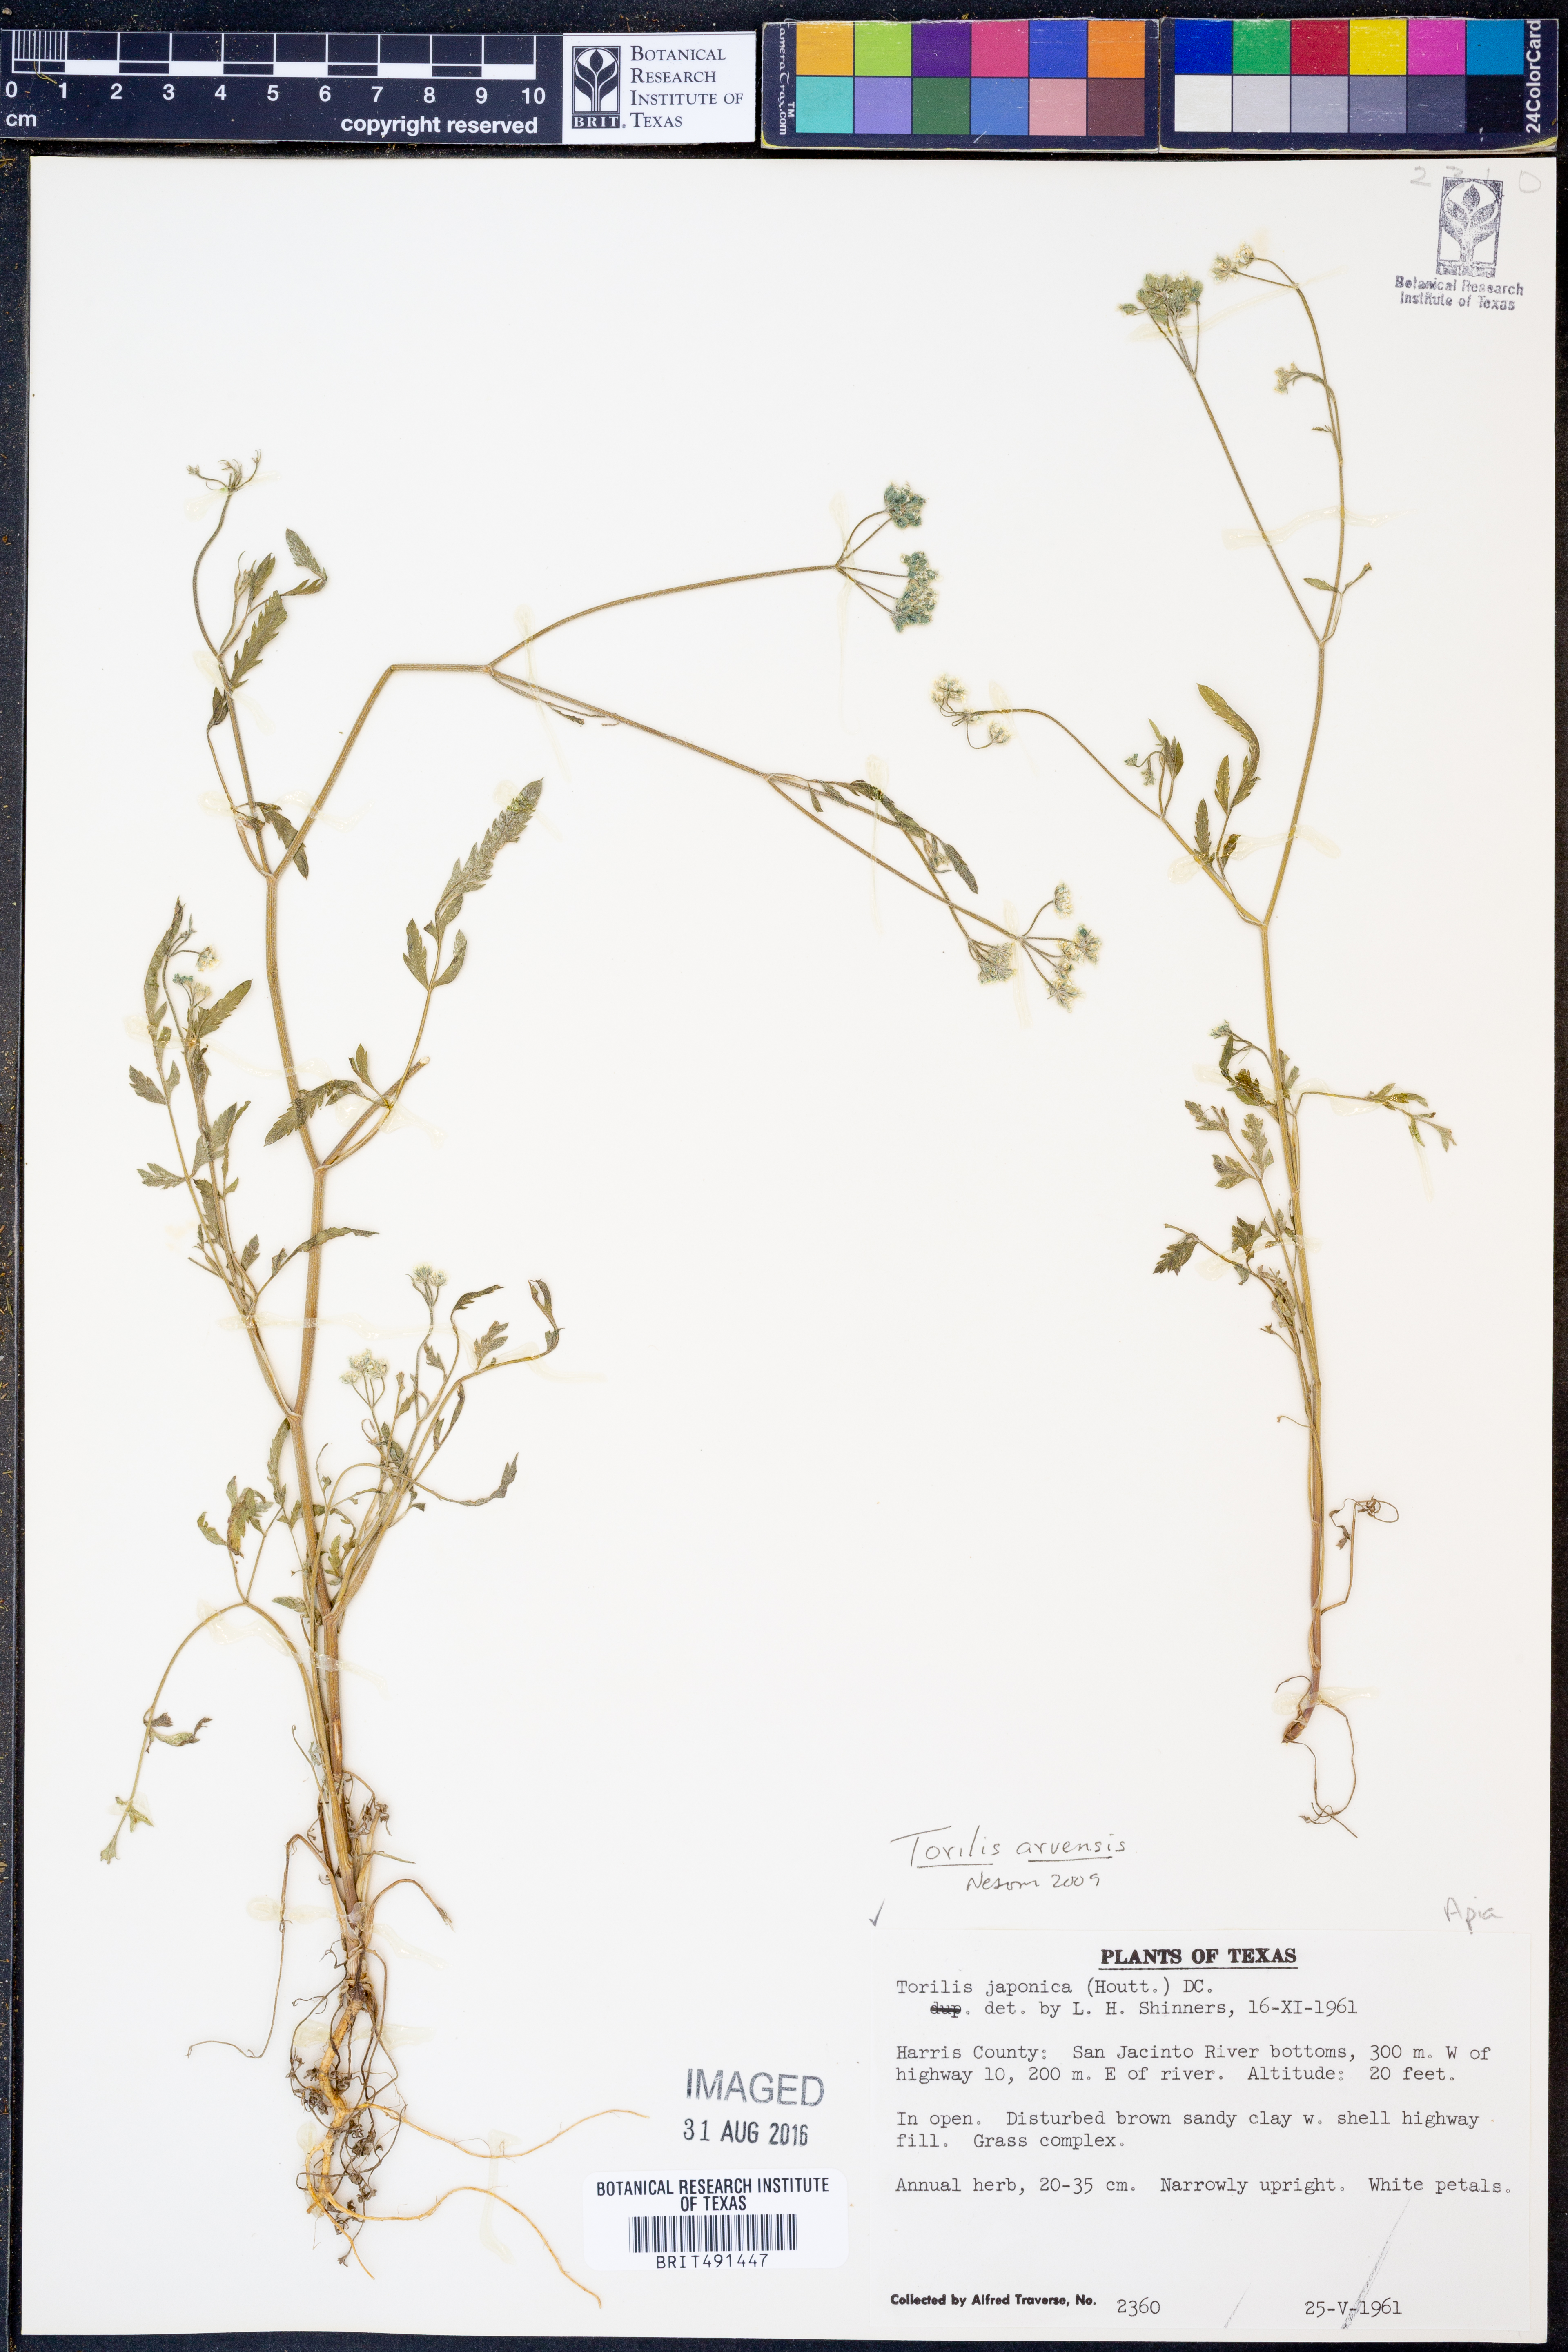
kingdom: Plantae
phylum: Tracheophyta
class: Magnoliopsida
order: Apiales
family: Apiaceae
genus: Torilis
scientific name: Torilis arvensis
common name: Spreading hedge-parsley
